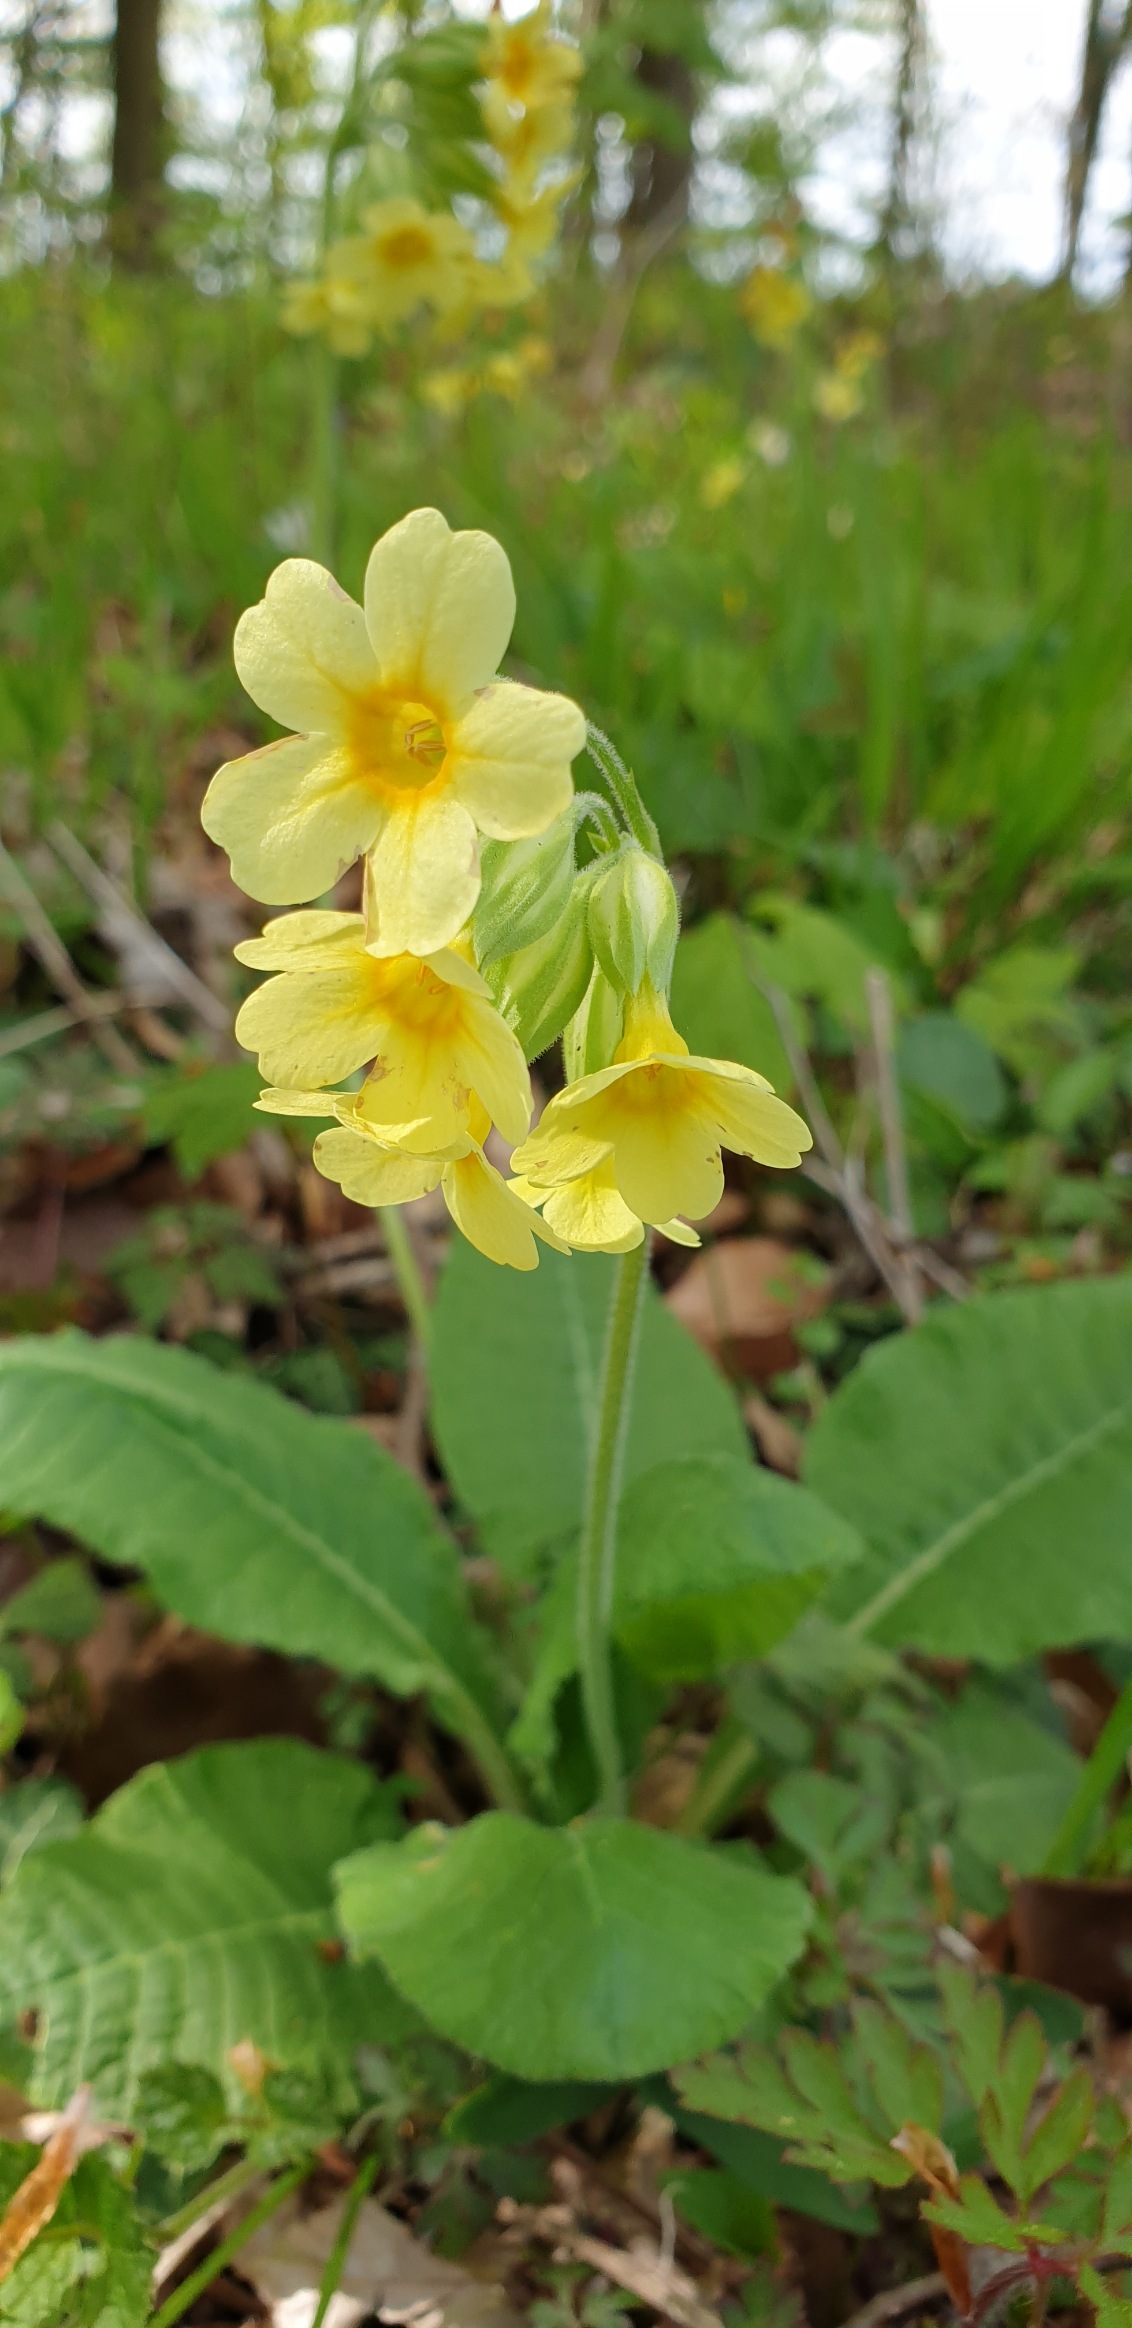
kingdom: Plantae
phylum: Tracheophyta
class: Magnoliopsida
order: Ericales
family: Primulaceae
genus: Primula
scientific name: Primula elatior
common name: Fladkravet kodriver
